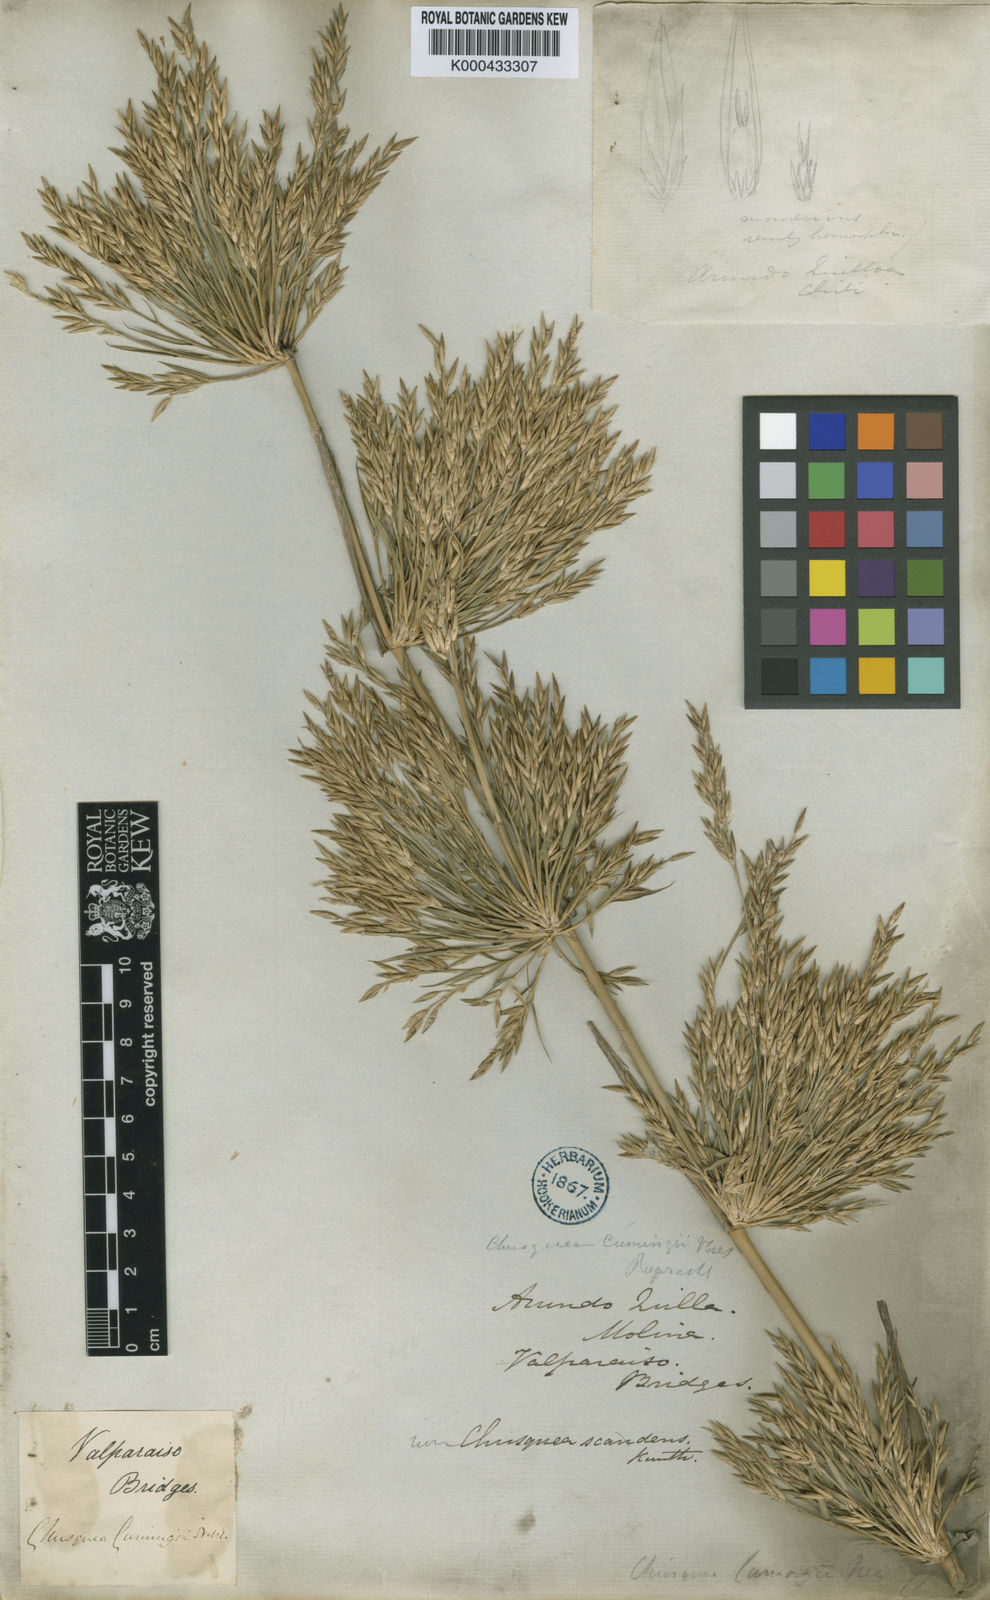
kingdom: Plantae
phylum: Tracheophyta
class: Liliopsida
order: Poales
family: Poaceae
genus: Chusquea
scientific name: Chusquea cumingii
